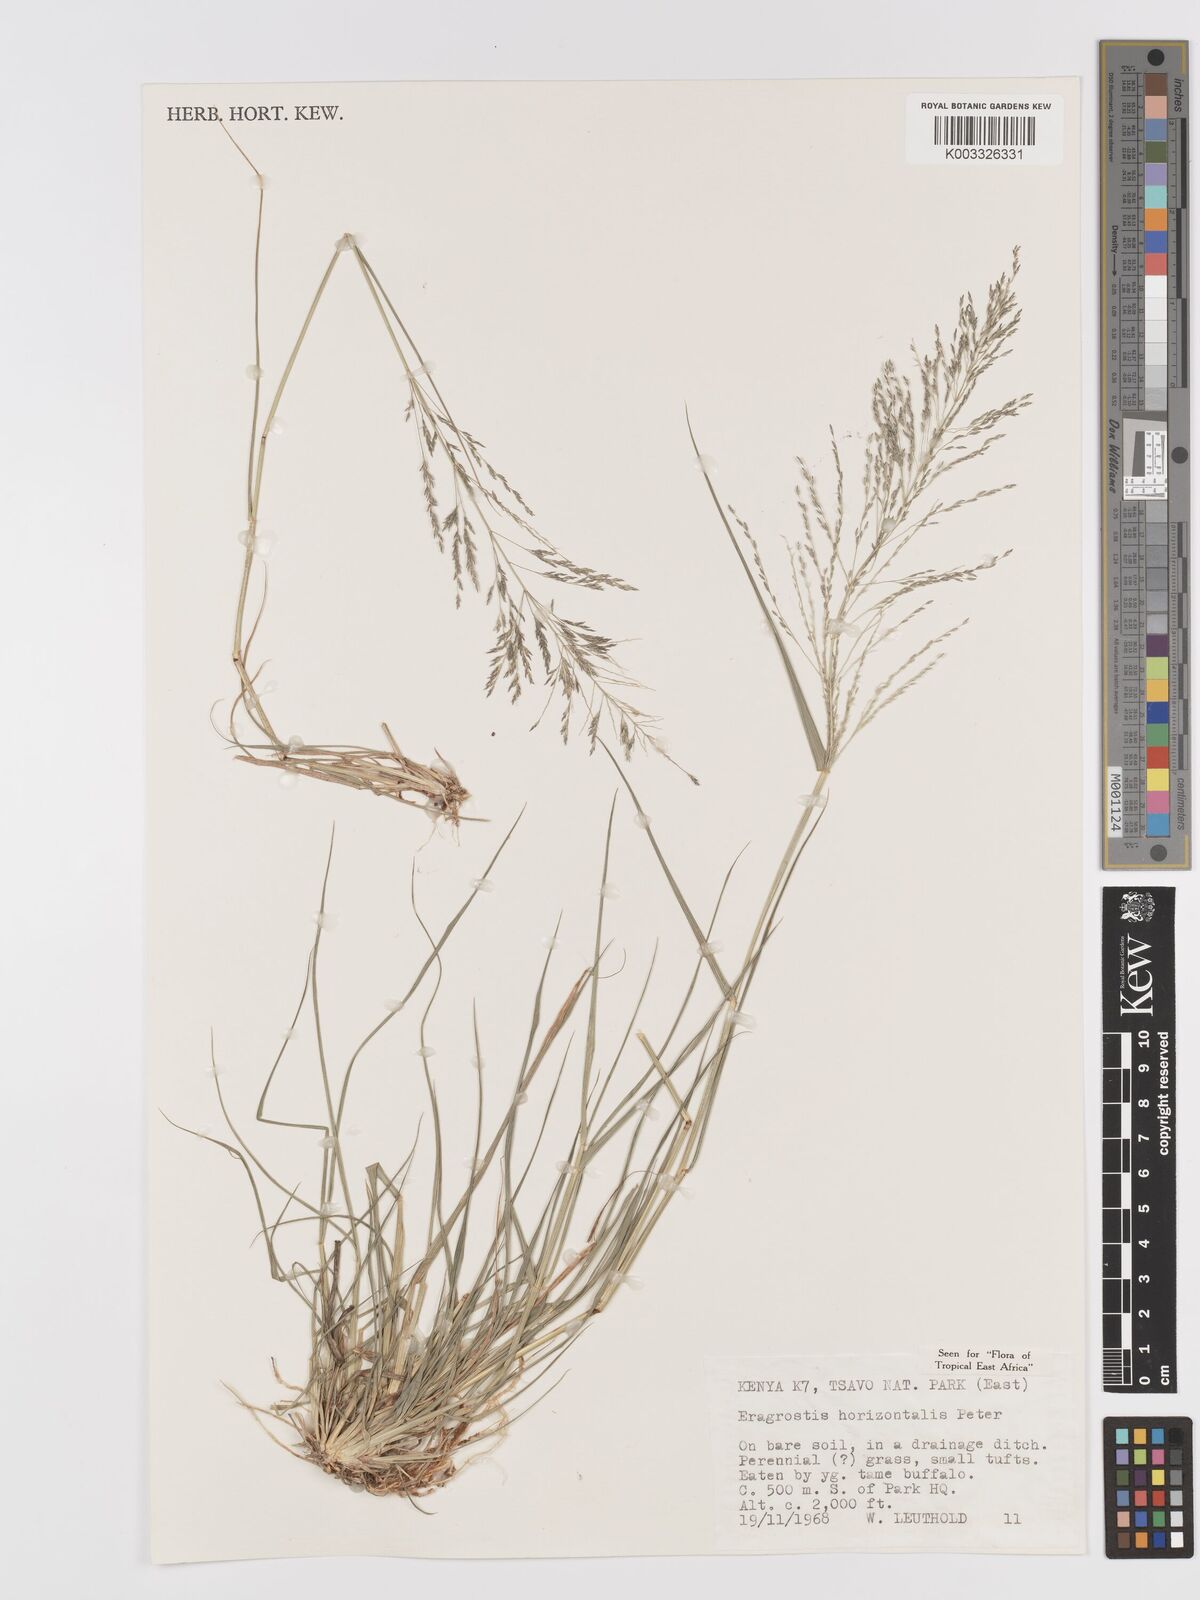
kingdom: Plantae
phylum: Tracheophyta
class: Liliopsida
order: Poales
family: Poaceae
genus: Eragrostis
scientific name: Eragrostis cylindriflora
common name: Cylinderflower lovegrass
